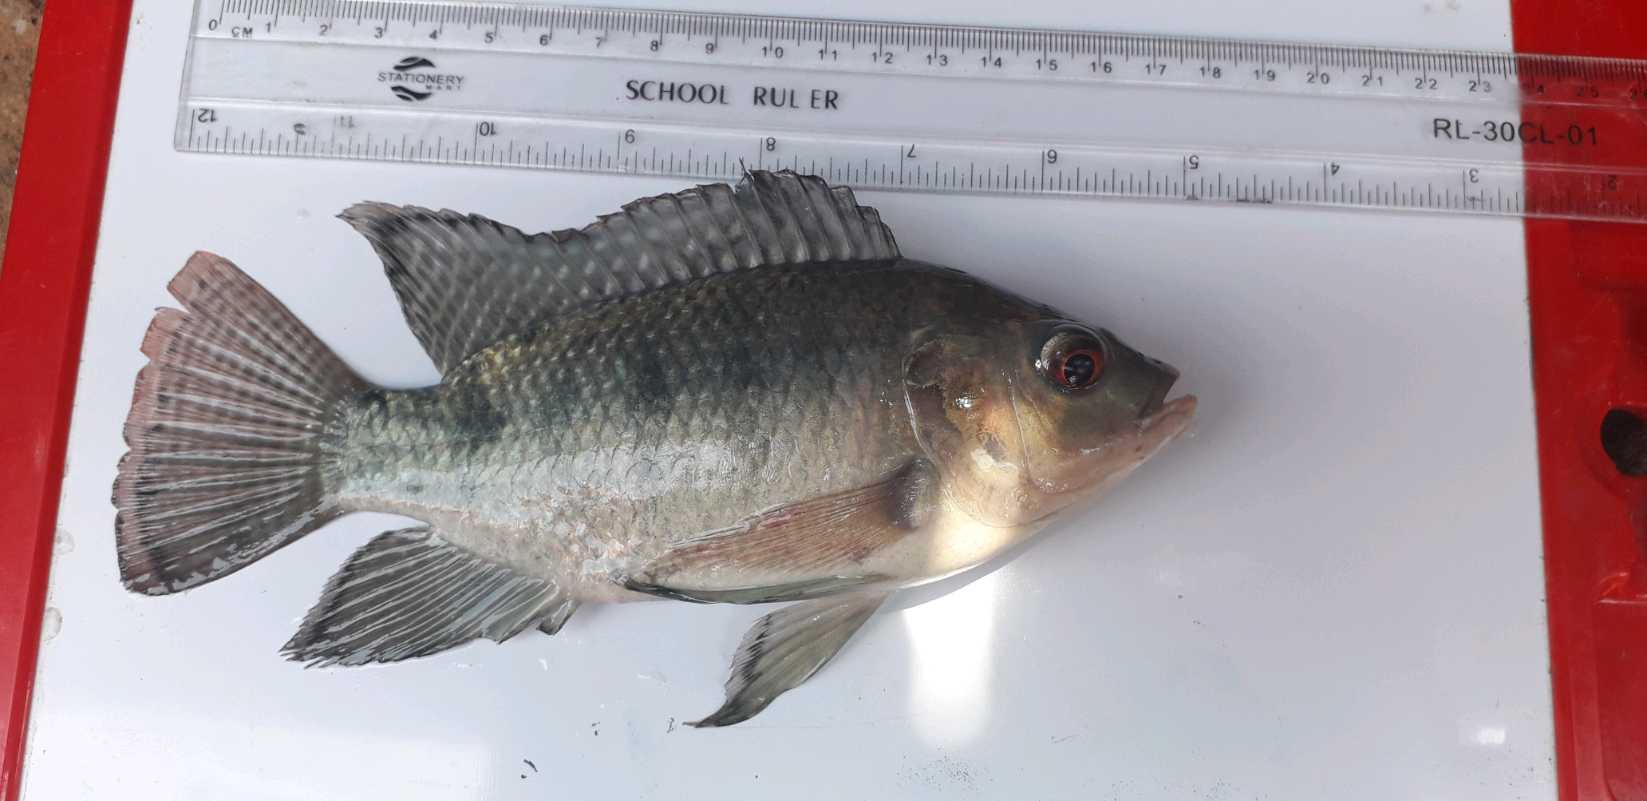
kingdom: Animalia
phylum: Chordata
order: Perciformes
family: Cichlidae
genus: Oreochromis
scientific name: Oreochromis
